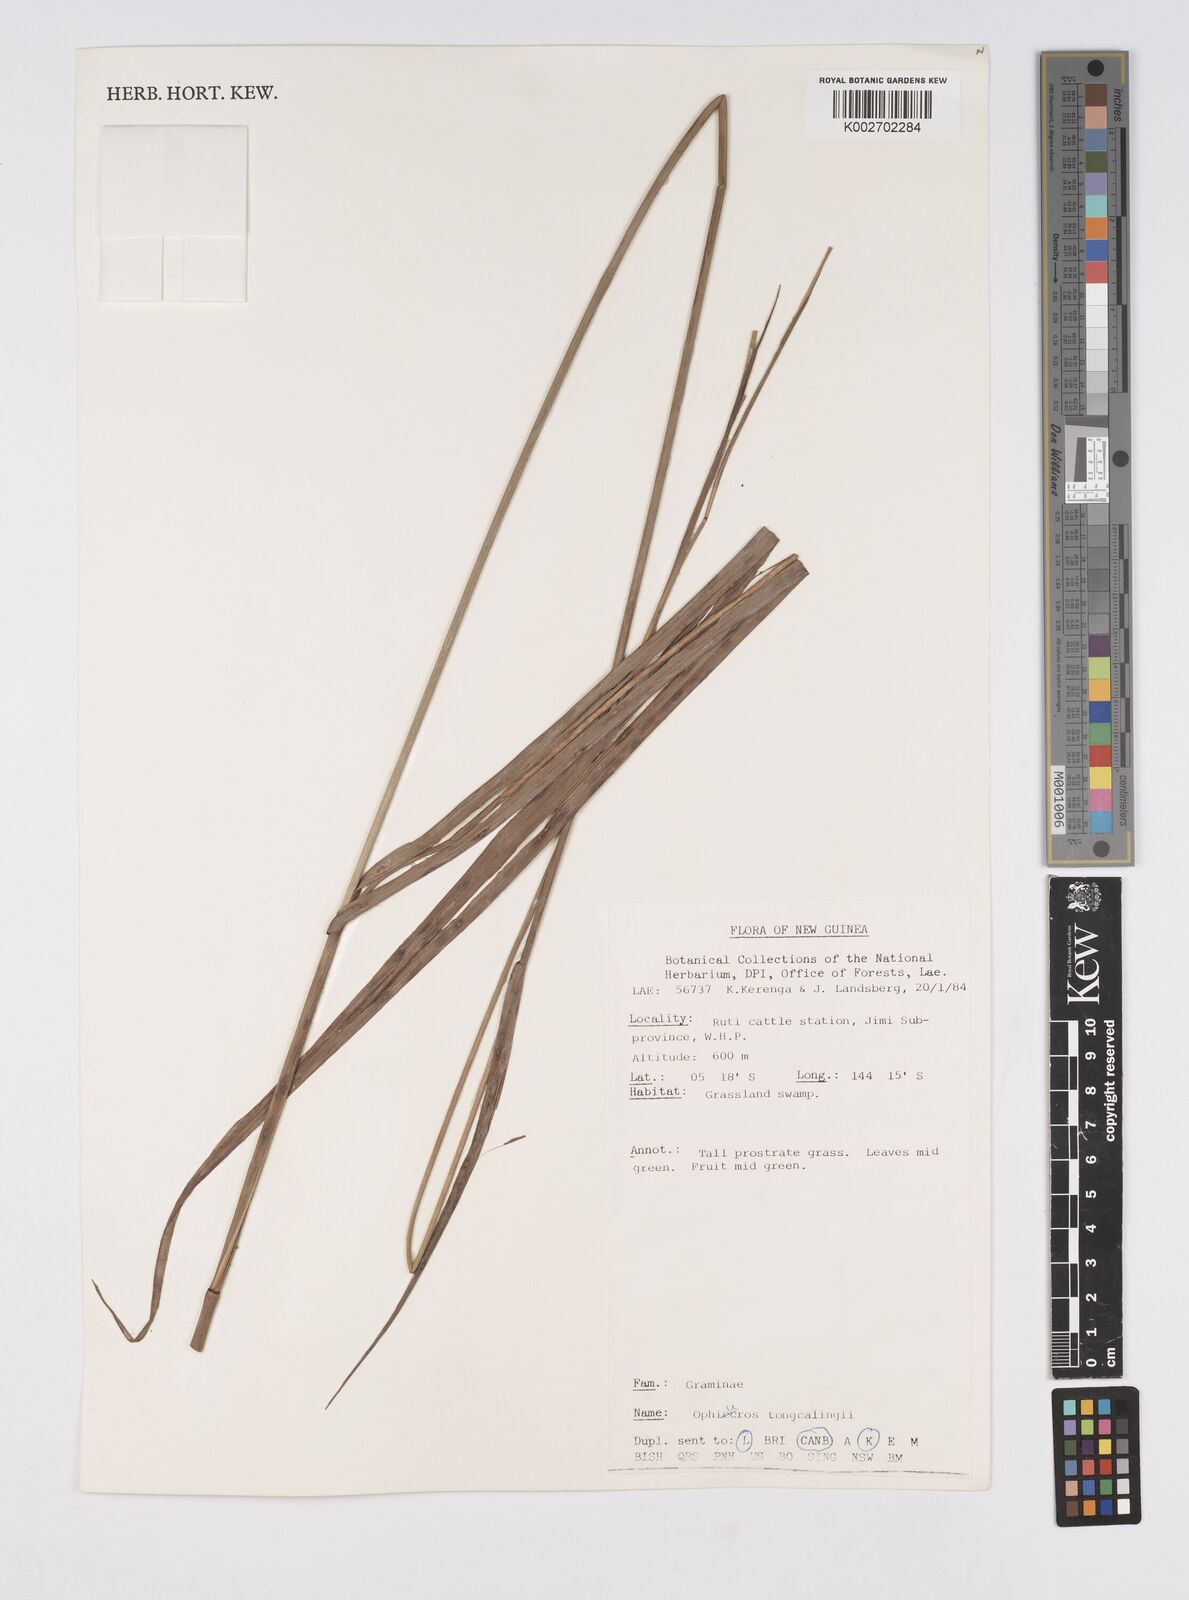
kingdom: Plantae
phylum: Tracheophyta
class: Liliopsida
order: Poales
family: Poaceae
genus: Ophiuros
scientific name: Ophiuros exaltatus
